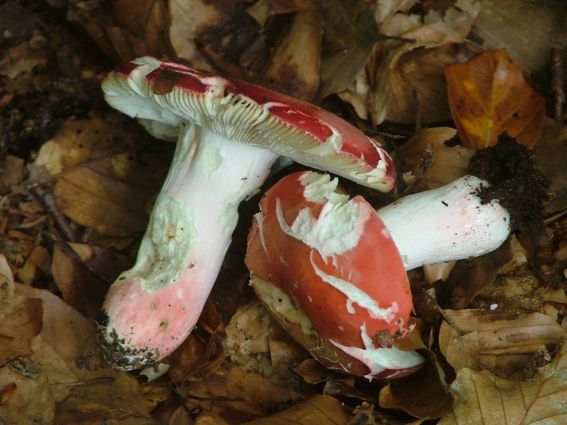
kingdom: Fungi
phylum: Basidiomycota
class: Agaricomycetes
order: Russulales
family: Russulaceae
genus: Russula
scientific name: Russula rosea
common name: fastkødet skørhat
